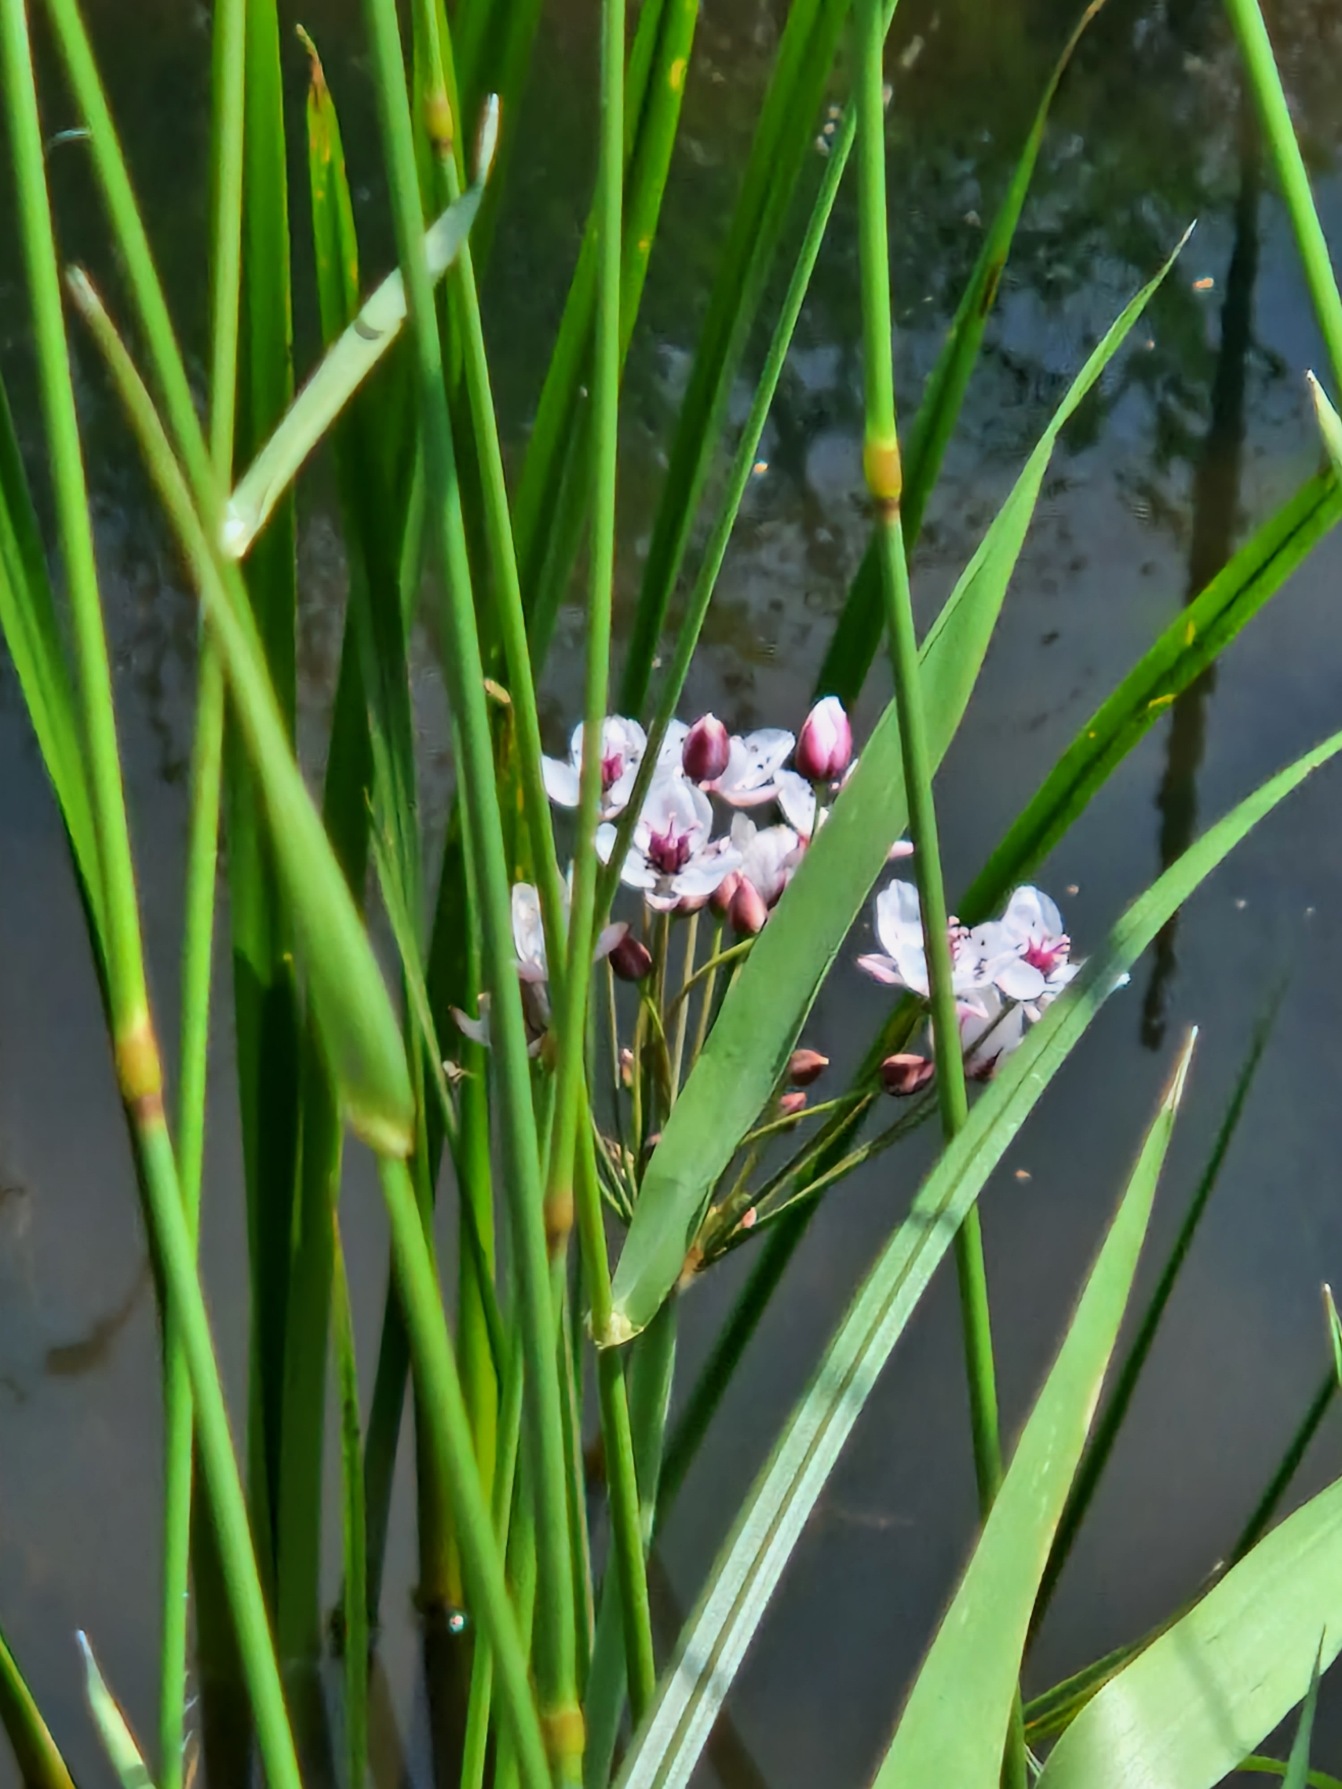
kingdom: Plantae
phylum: Tracheophyta
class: Liliopsida
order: Alismatales
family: Butomaceae
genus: Butomus
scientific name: Butomus umbellatus
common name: Brudelys
